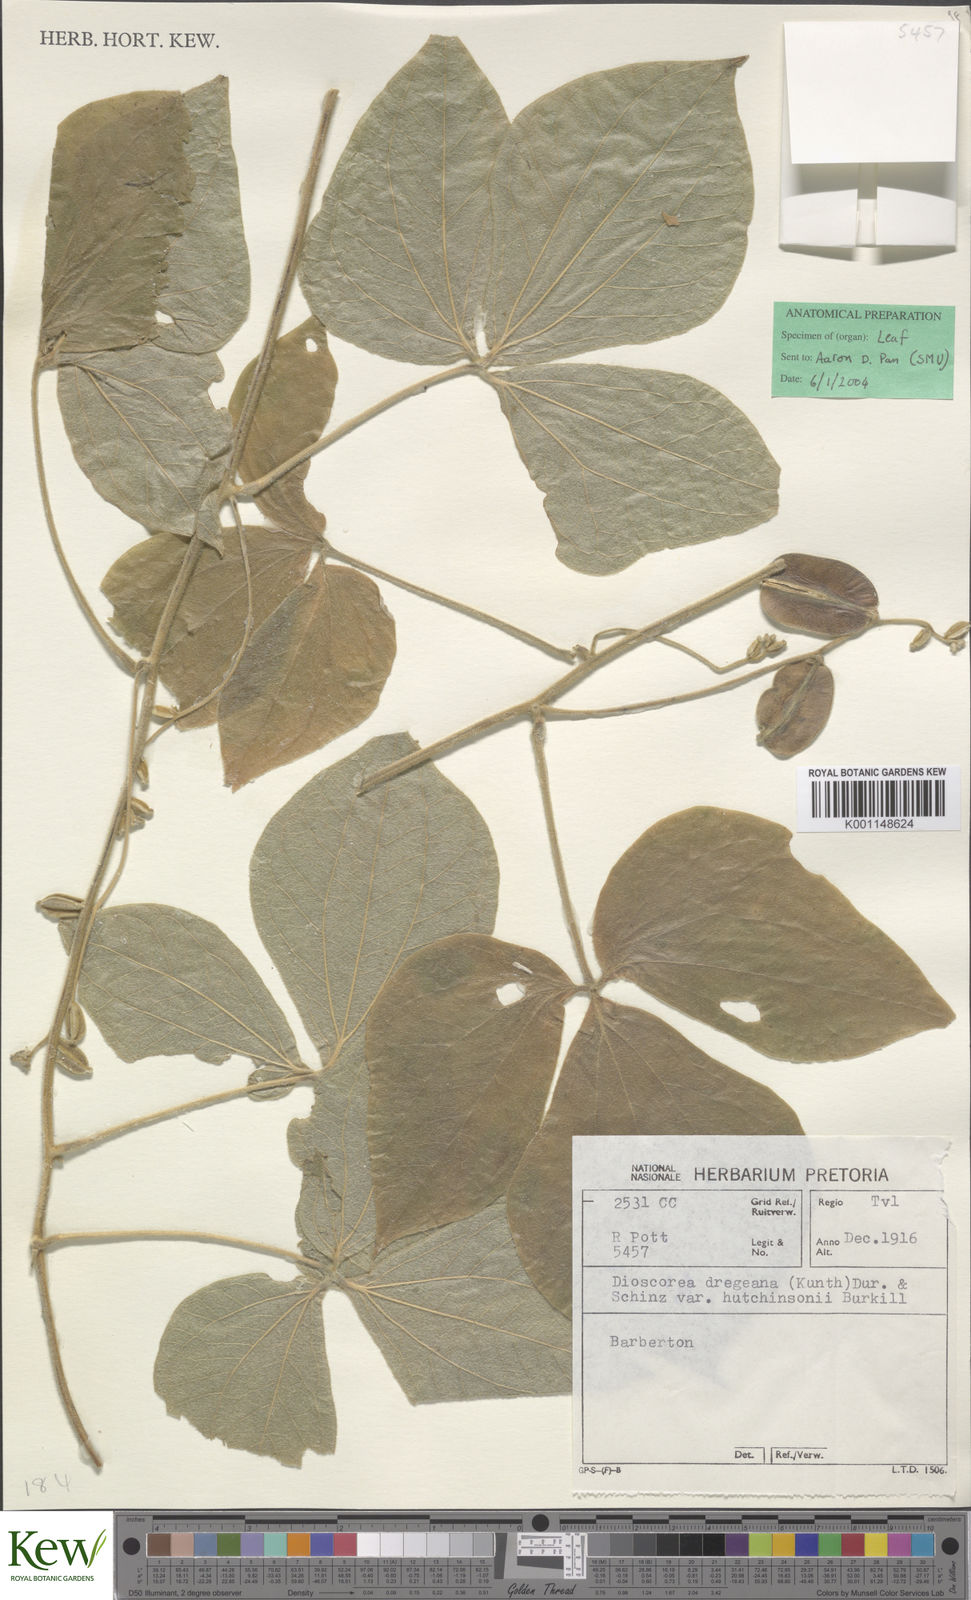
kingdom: Plantae
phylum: Tracheophyta
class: Liliopsida
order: Dioscoreales
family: Dioscoreaceae
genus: Dioscorea
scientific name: Dioscorea dregeana
